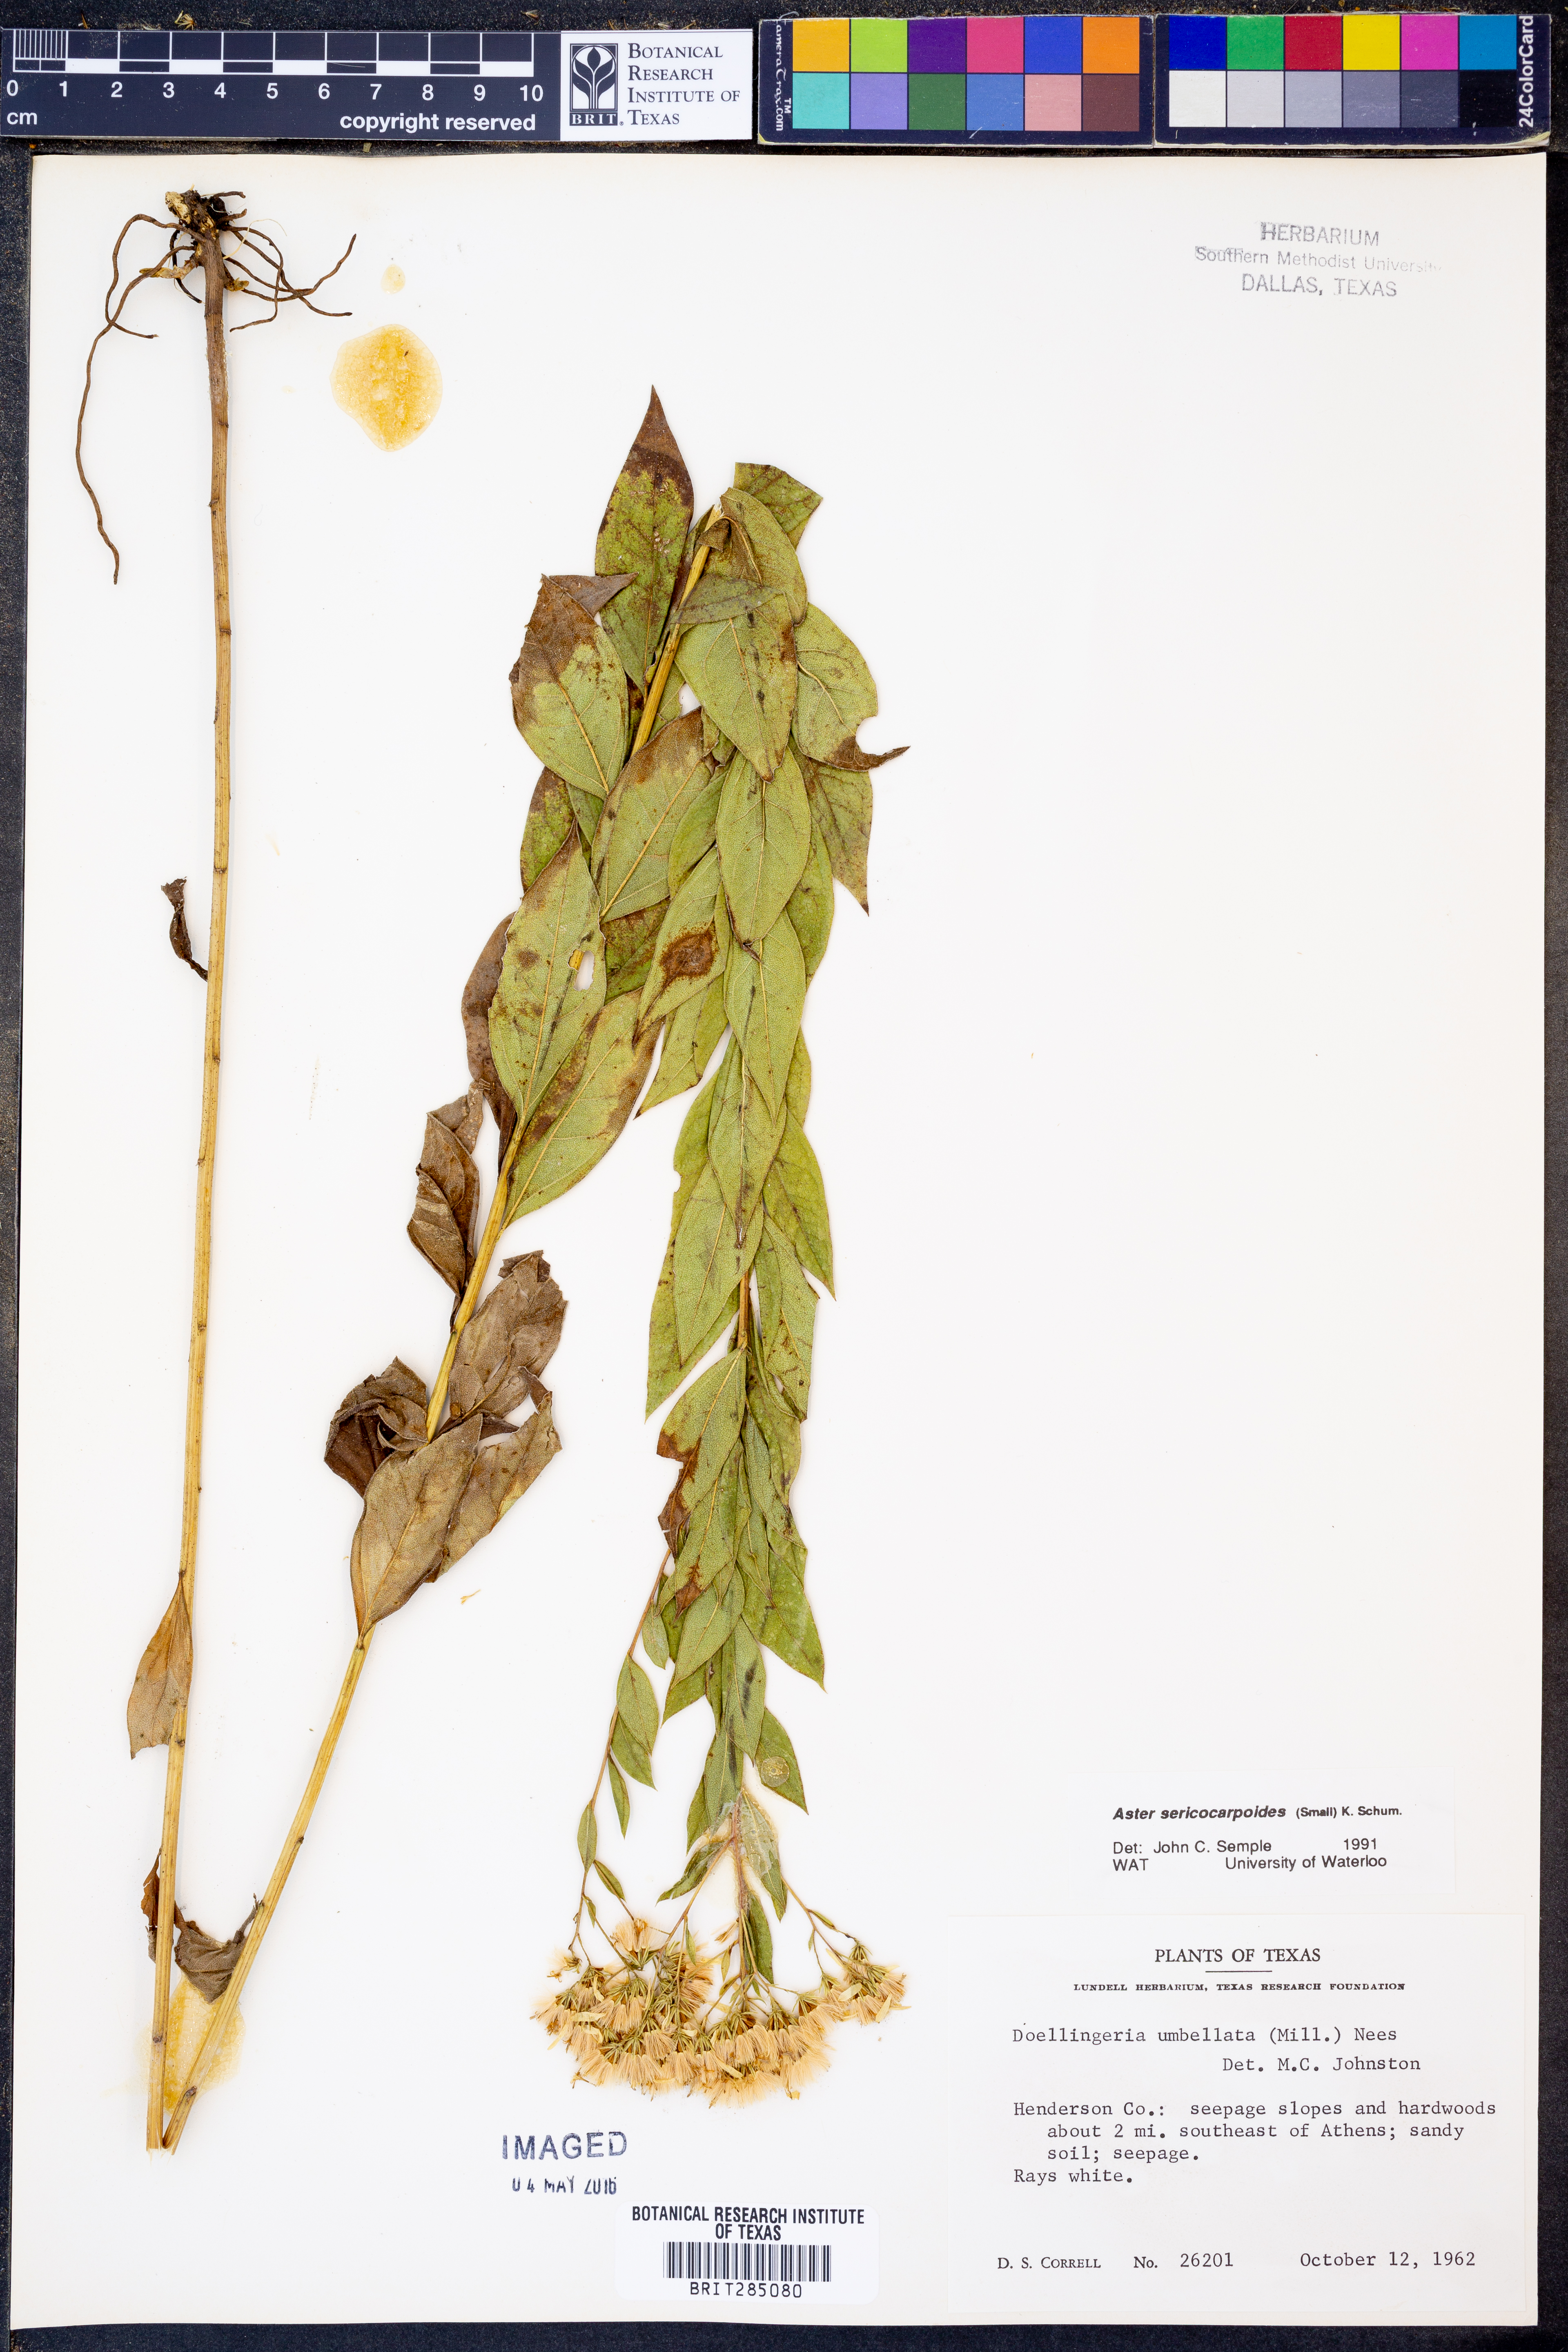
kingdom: Plantae
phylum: Tracheophyta
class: Magnoliopsida
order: Asterales
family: Asteraceae
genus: Doellingeria
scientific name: Doellingeria sericocarpoides
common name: Southern tall flat-top aster
